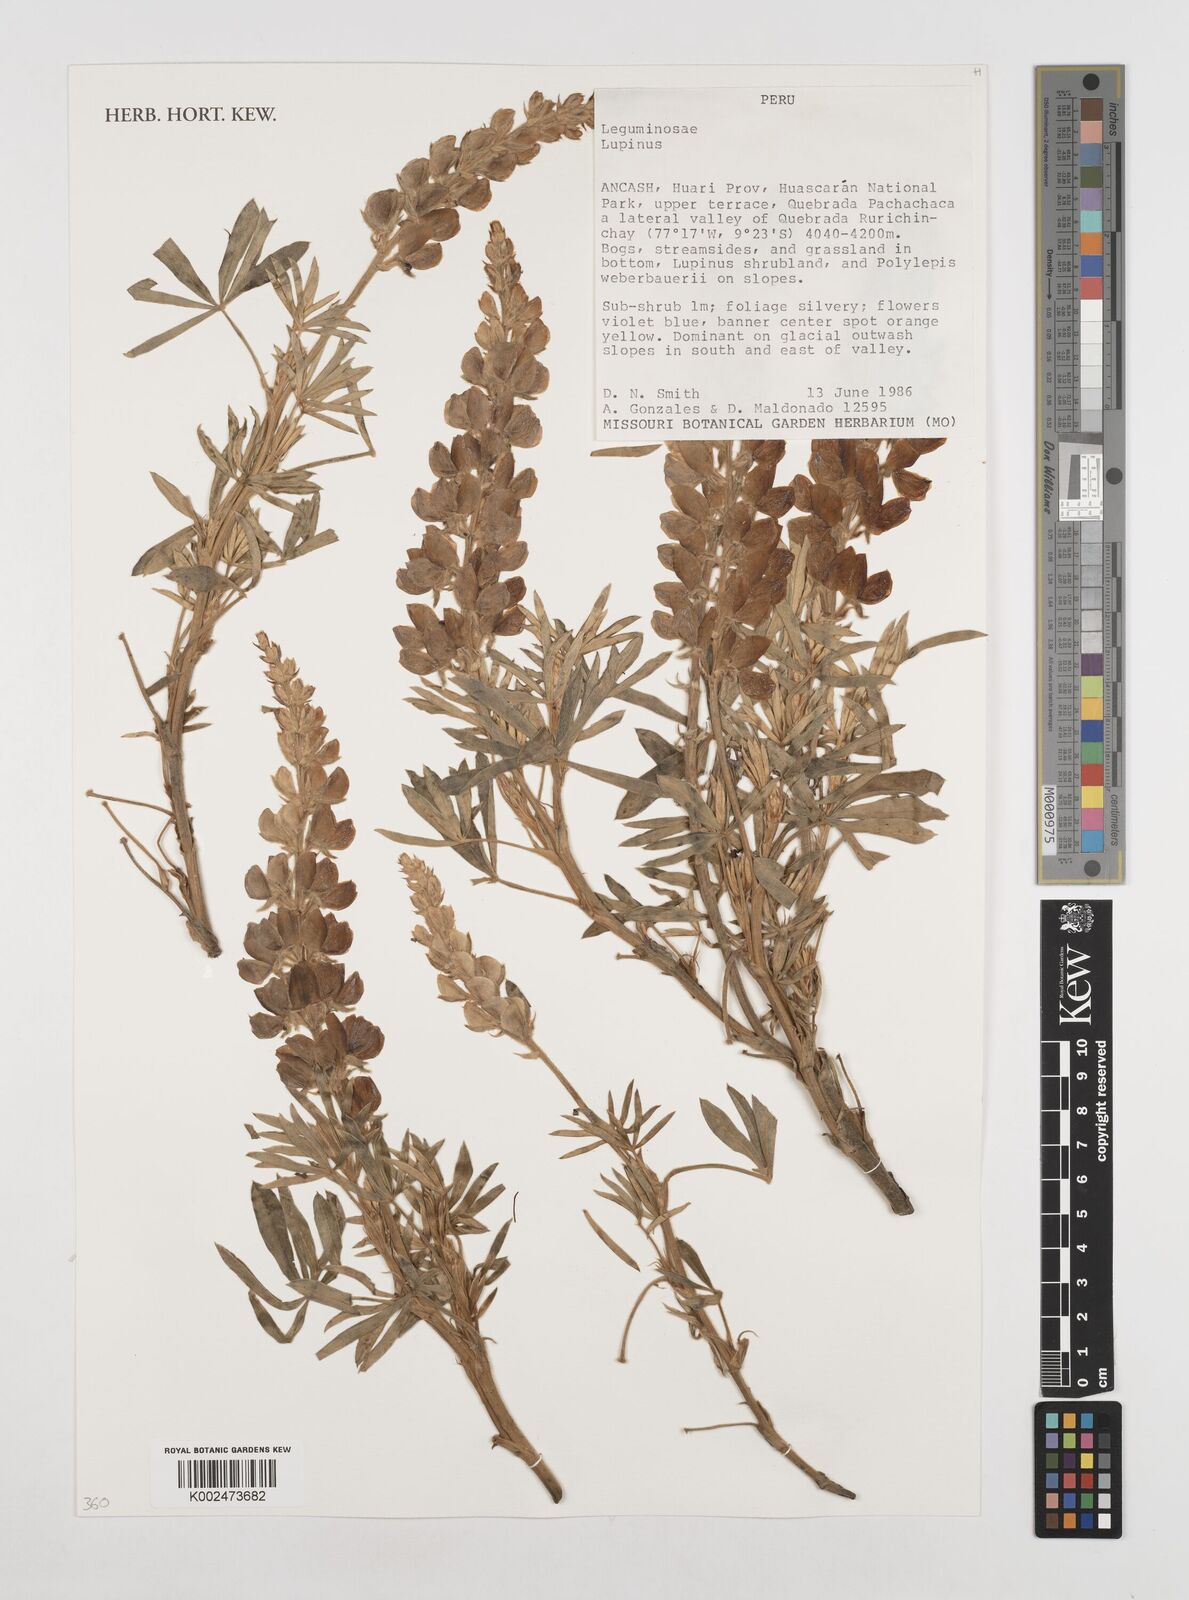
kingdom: Plantae
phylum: Tracheophyta
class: Magnoliopsida
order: Fabales
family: Fabaceae
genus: Lupinus
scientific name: Lupinus
